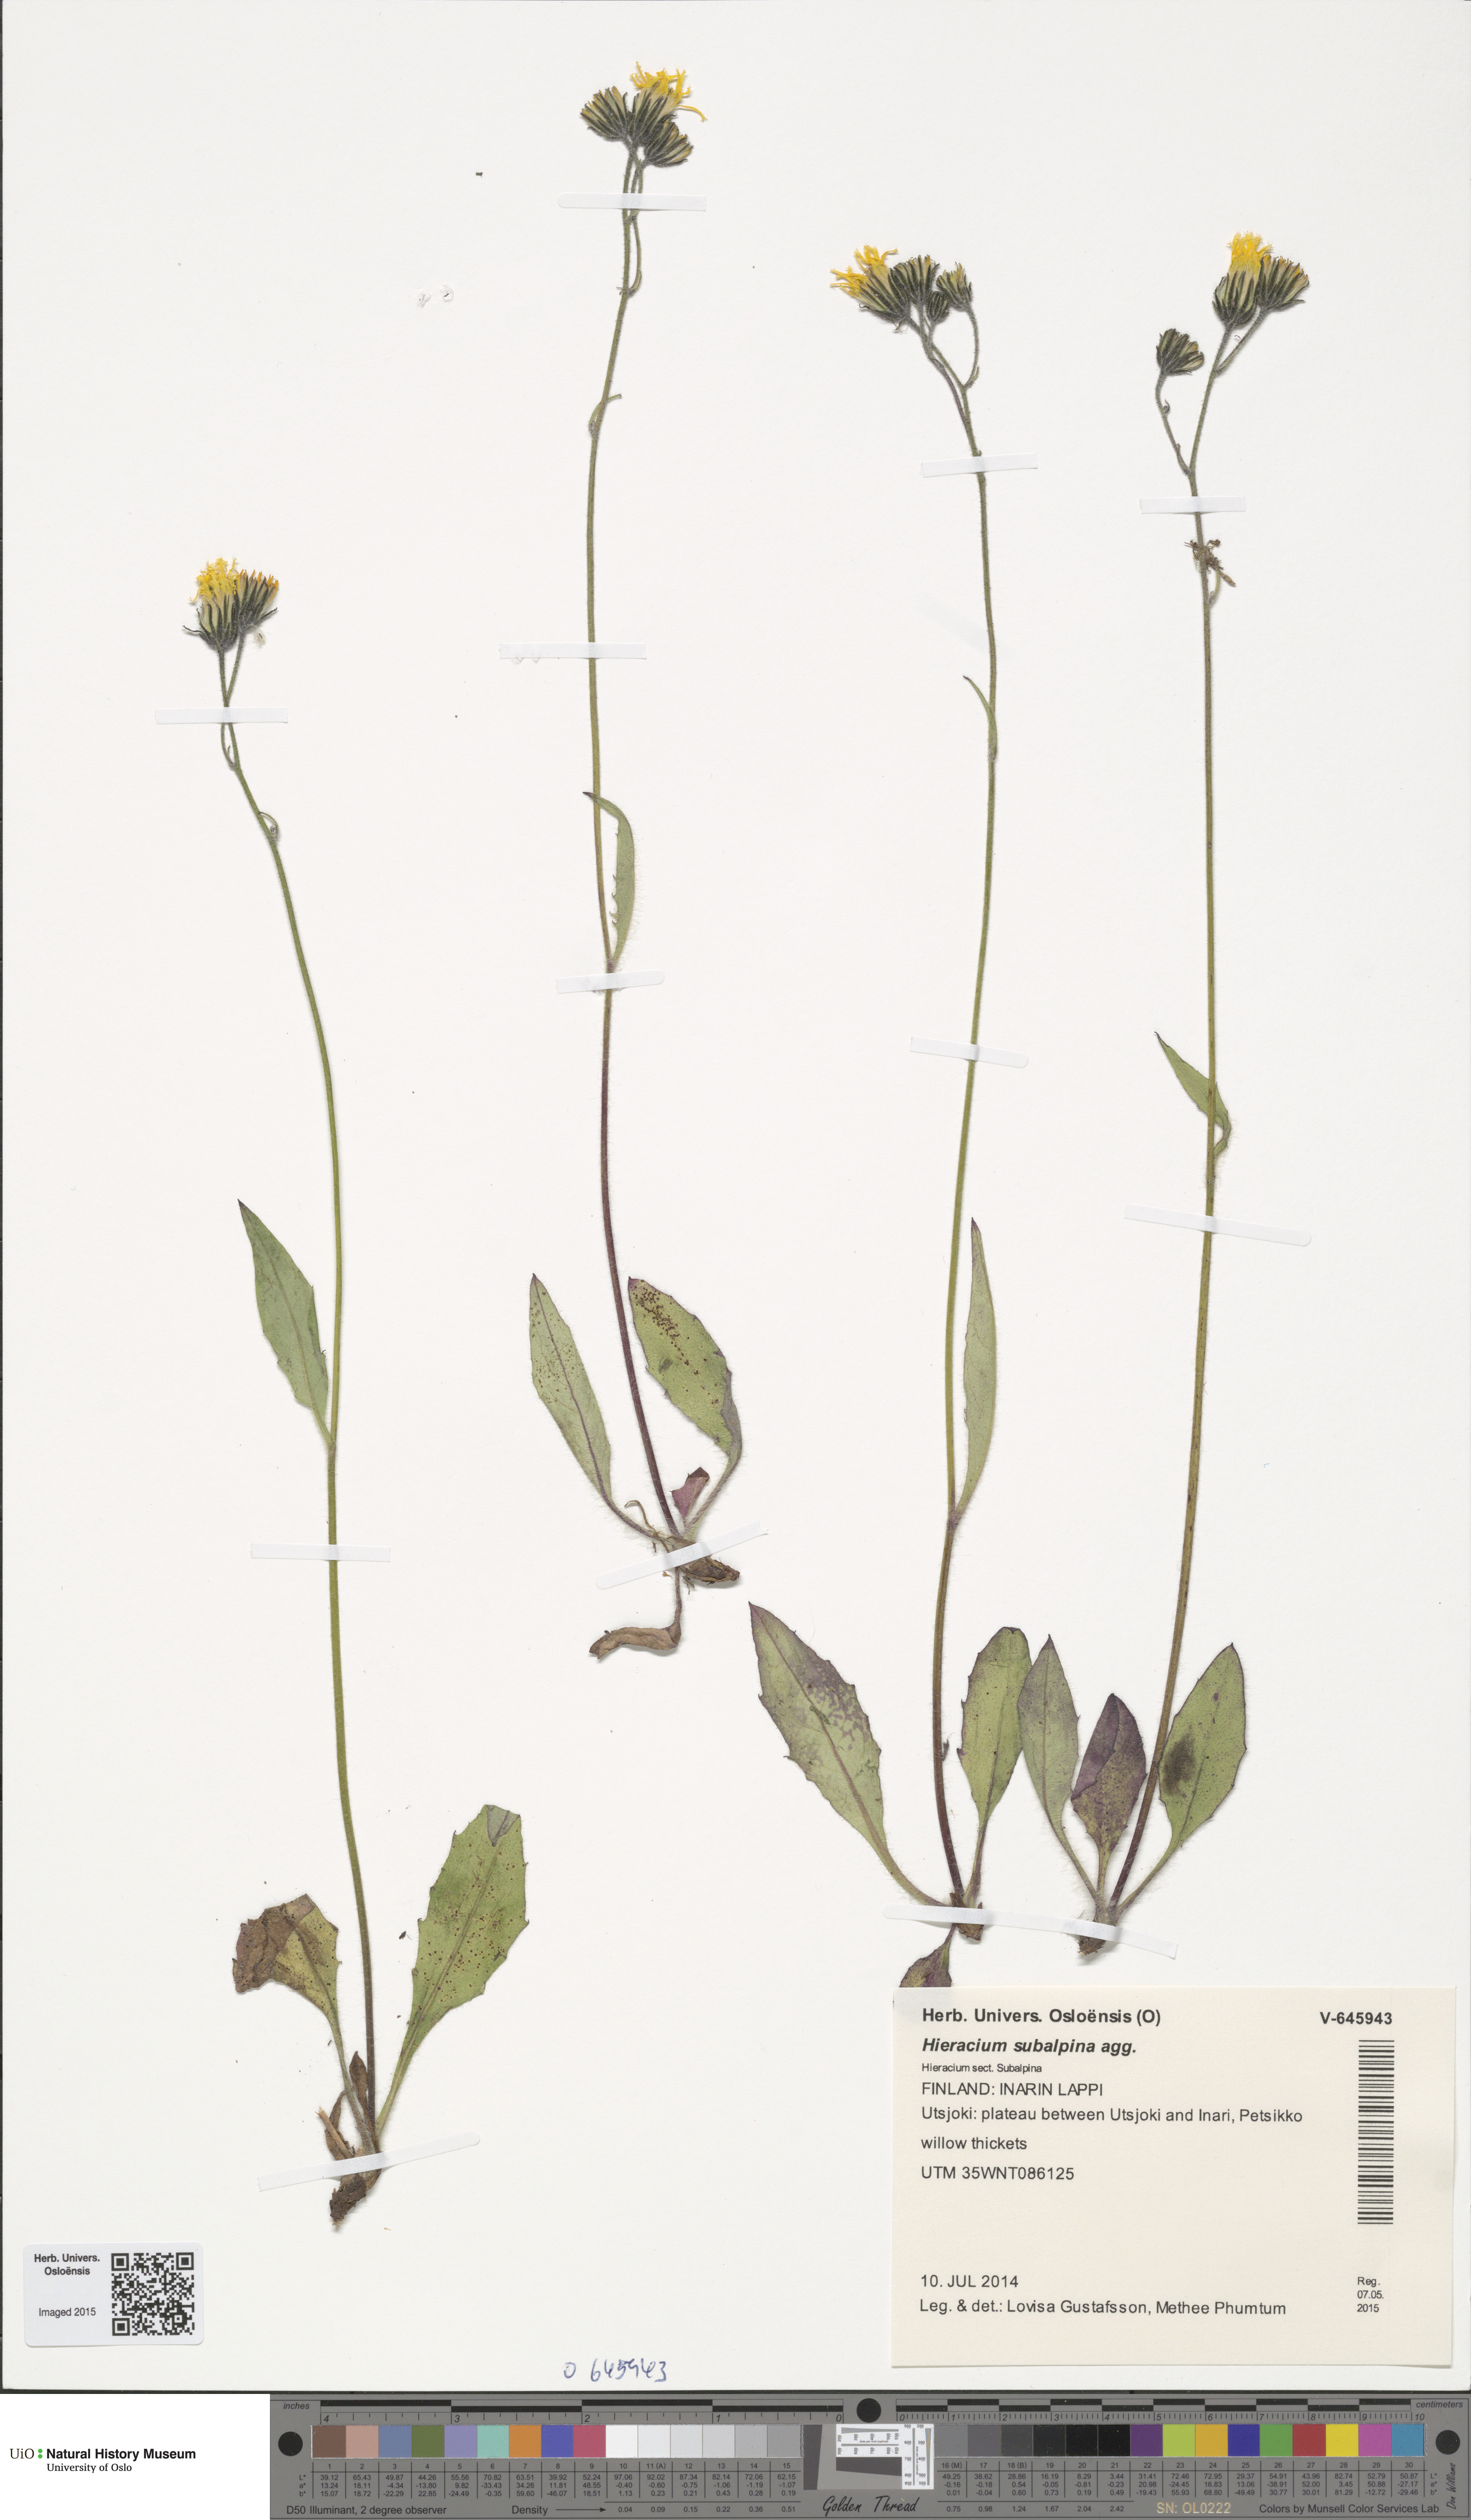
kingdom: Plantae
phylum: Tracheophyta
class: Magnoliopsida
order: Asterales
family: Asteraceae
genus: Hieracium
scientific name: Hieracium umbrosum
